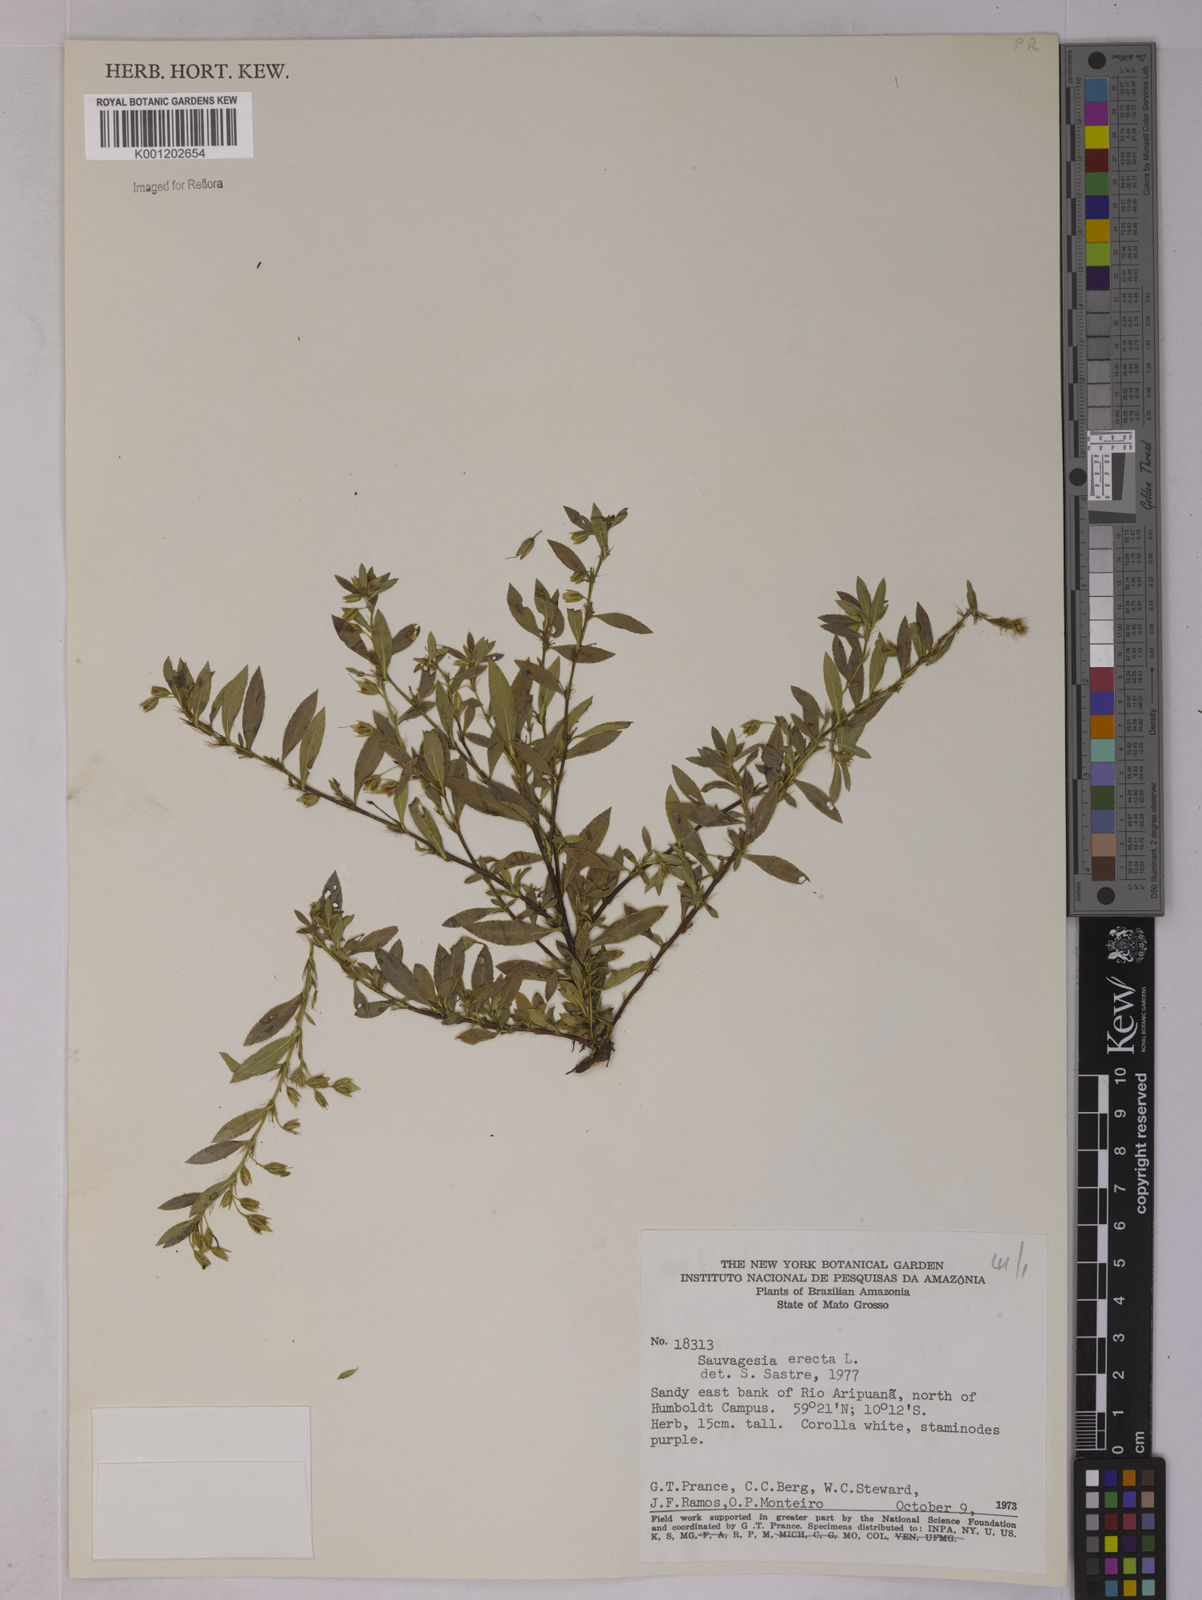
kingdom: Plantae
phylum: Tracheophyta
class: Magnoliopsida
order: Malpighiales
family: Ochnaceae
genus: Sauvagesia
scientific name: Sauvagesia erecta
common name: Creole tea
